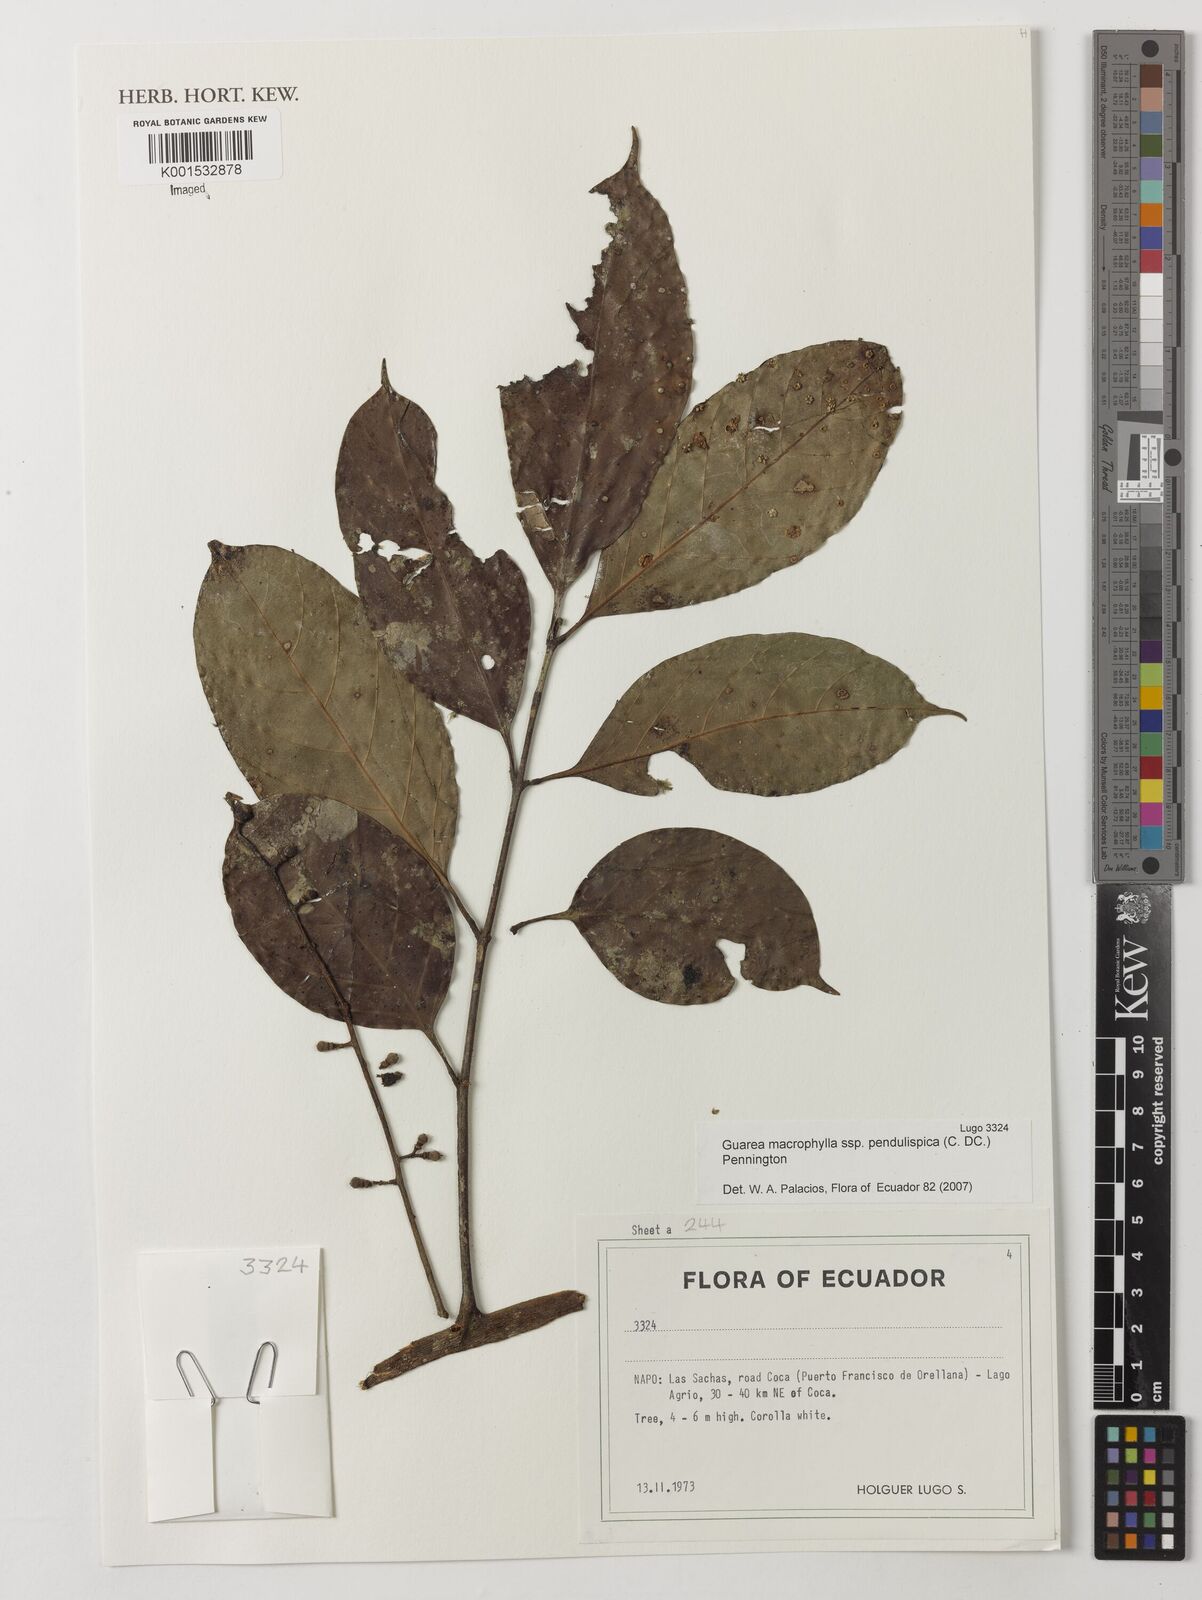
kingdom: Plantae
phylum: Tracheophyta
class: Magnoliopsida
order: Sapindales
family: Meliaceae
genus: Guarea
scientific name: Guarea macrophylla
